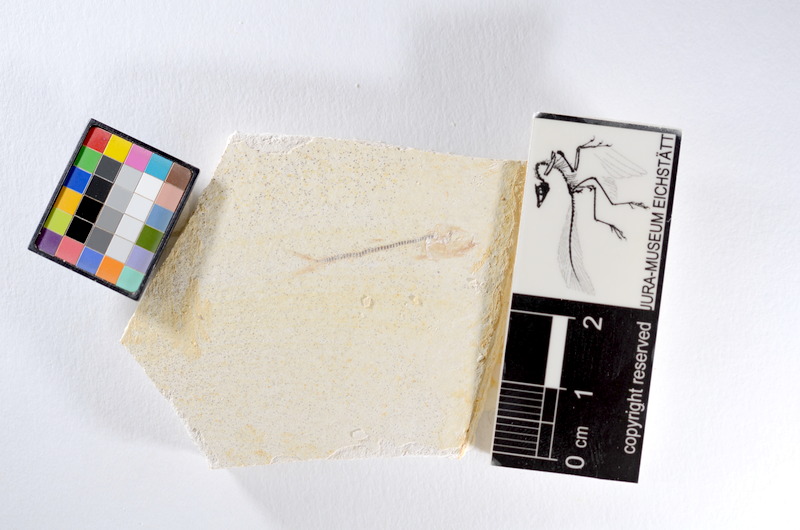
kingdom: Animalia
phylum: Chordata
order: Salmoniformes
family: Orthogonikleithridae
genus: Orthogonikleithrus
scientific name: Orthogonikleithrus hoelli
